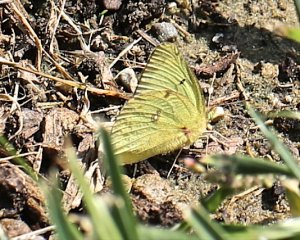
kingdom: Animalia
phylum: Arthropoda
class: Insecta
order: Lepidoptera
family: Pieridae
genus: Colias
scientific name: Colias philodice
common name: Clouded Sulphur
